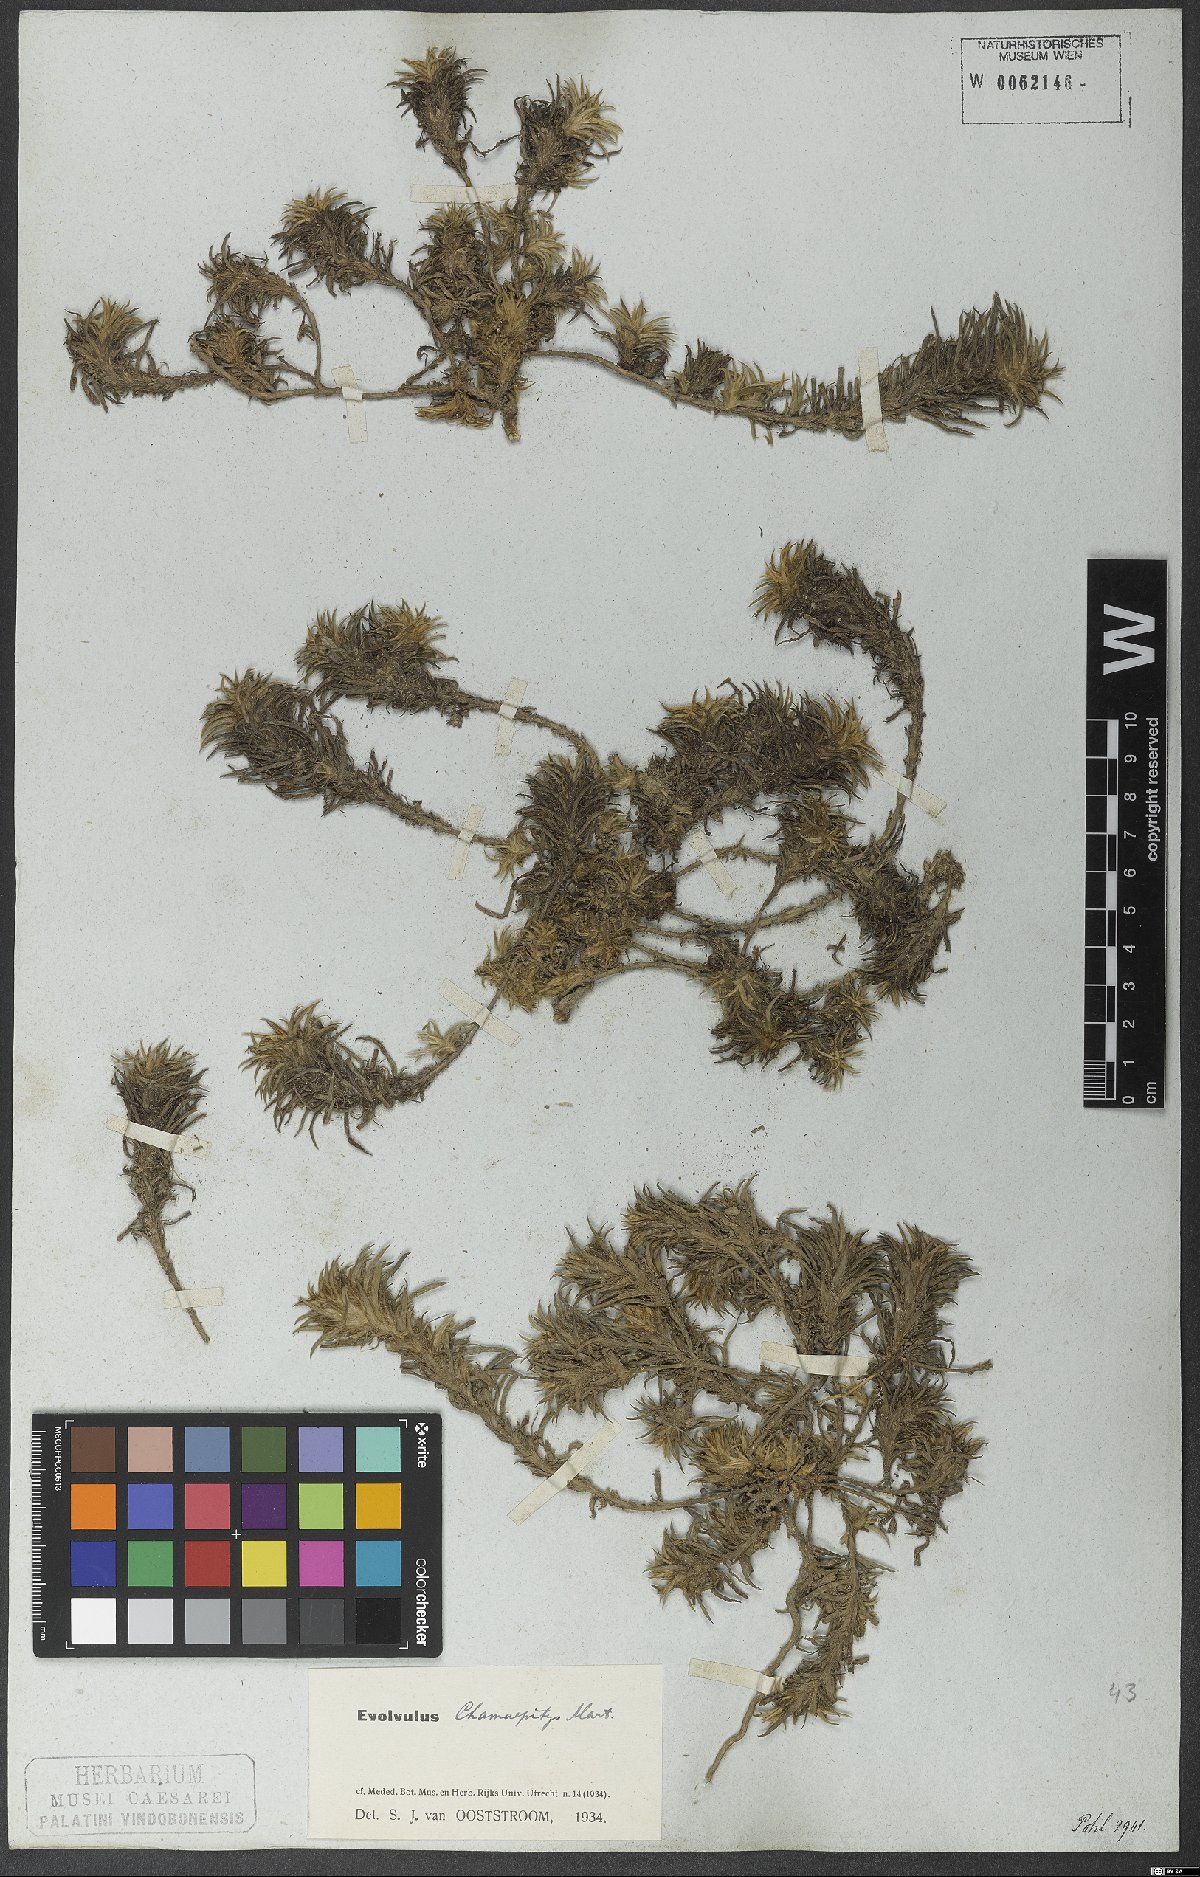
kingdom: Plantae
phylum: Tracheophyta
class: Magnoliopsida
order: Solanales
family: Convolvulaceae
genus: Evolvulus
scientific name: Evolvulus chamaepitys
